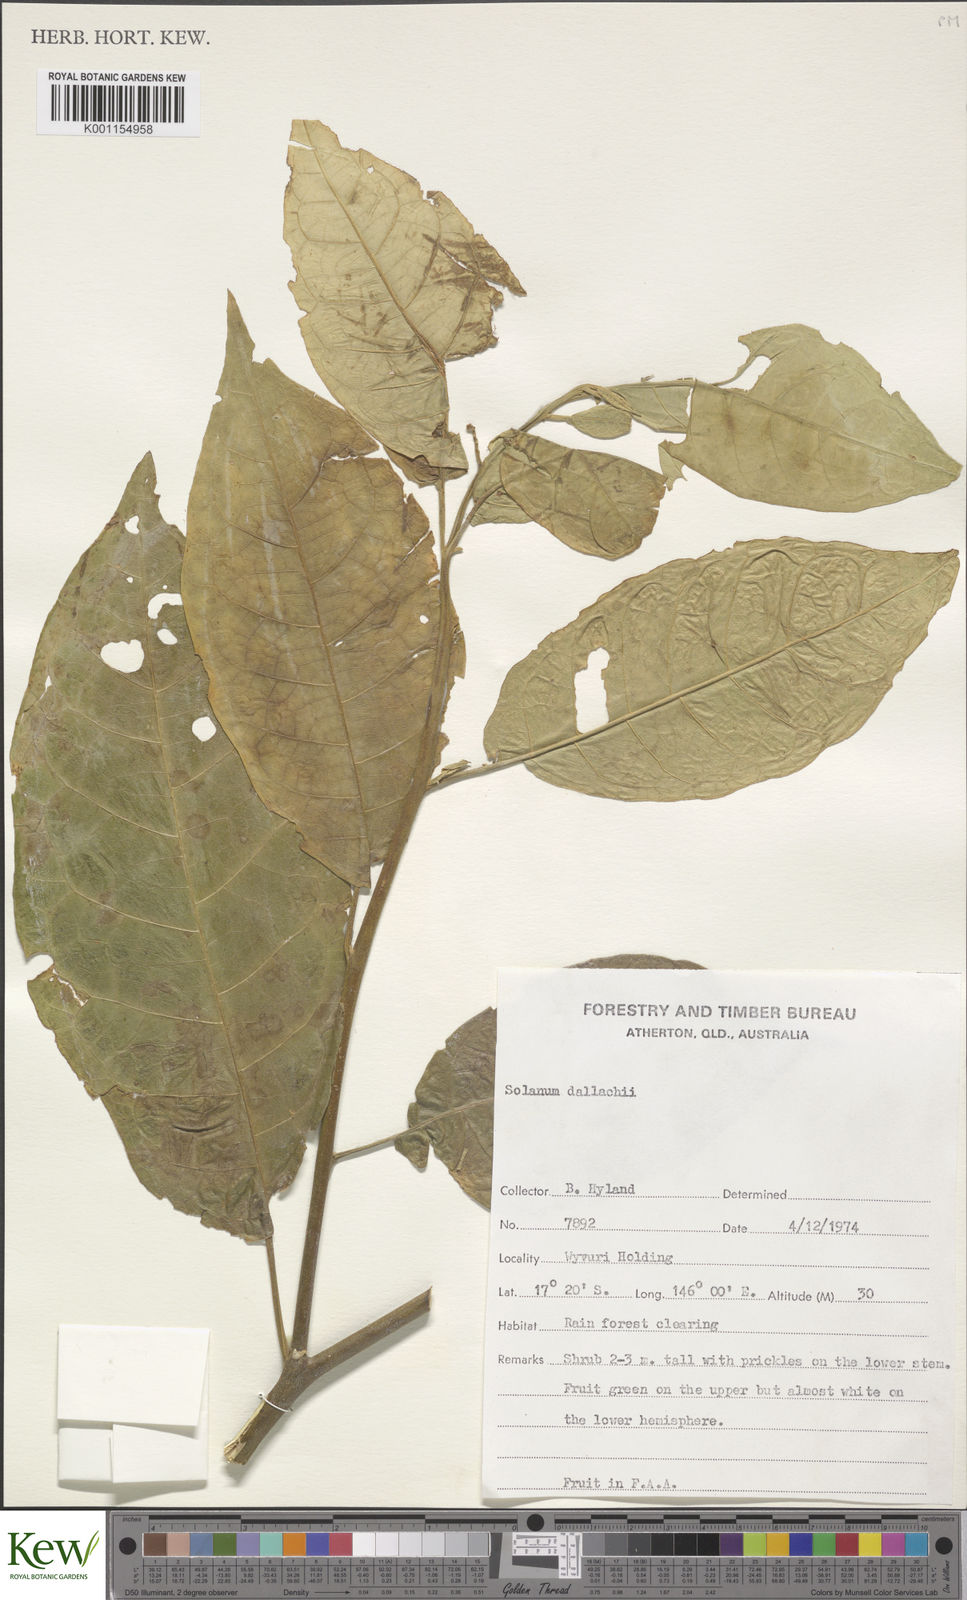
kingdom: Plantae
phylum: Tracheophyta
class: Magnoliopsida
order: Solanales
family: Solanaceae
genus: Solanum
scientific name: Solanum magnifolium
